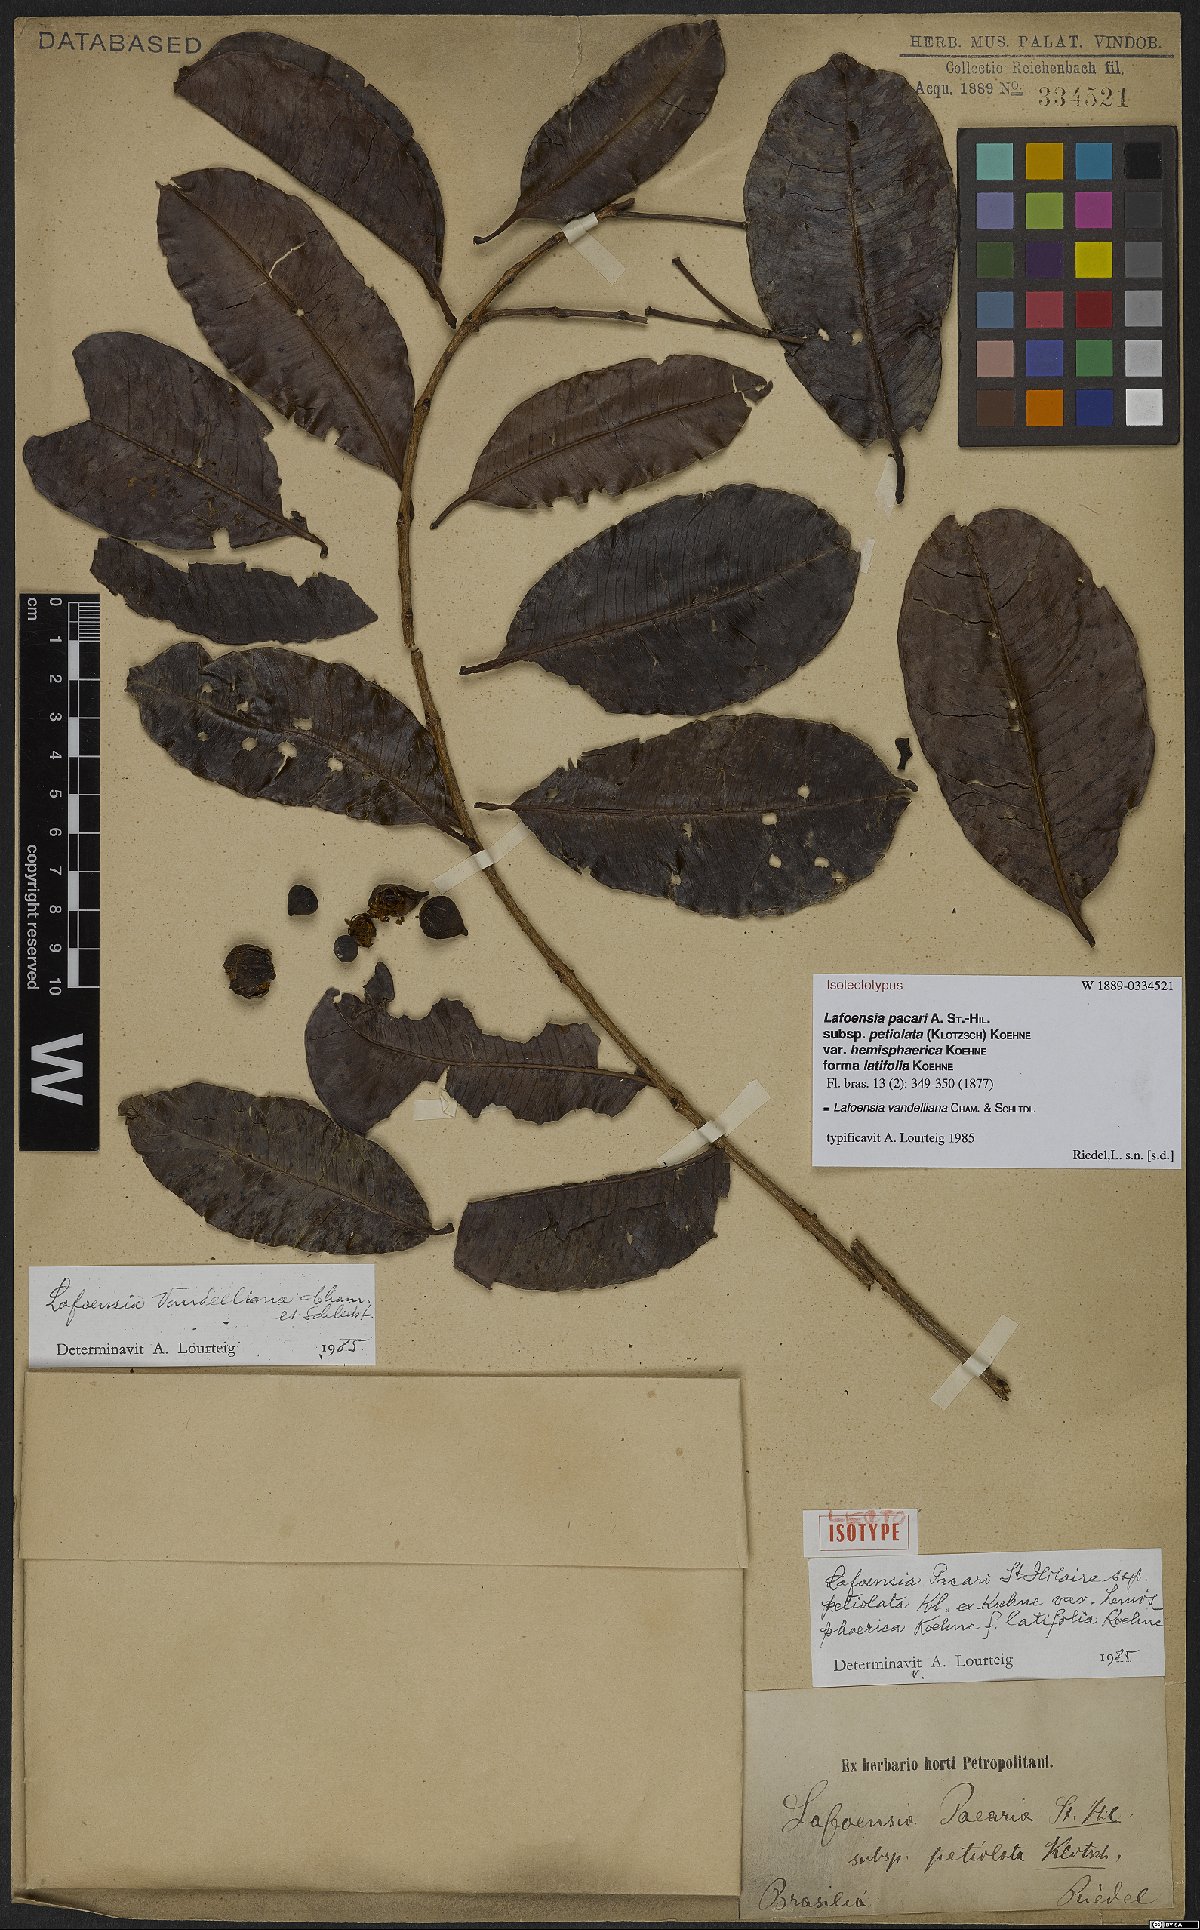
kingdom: Plantae
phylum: Tracheophyta
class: Magnoliopsida
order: Myrtales
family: Lythraceae
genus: Lafoensia
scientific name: Lafoensia vandelliana
